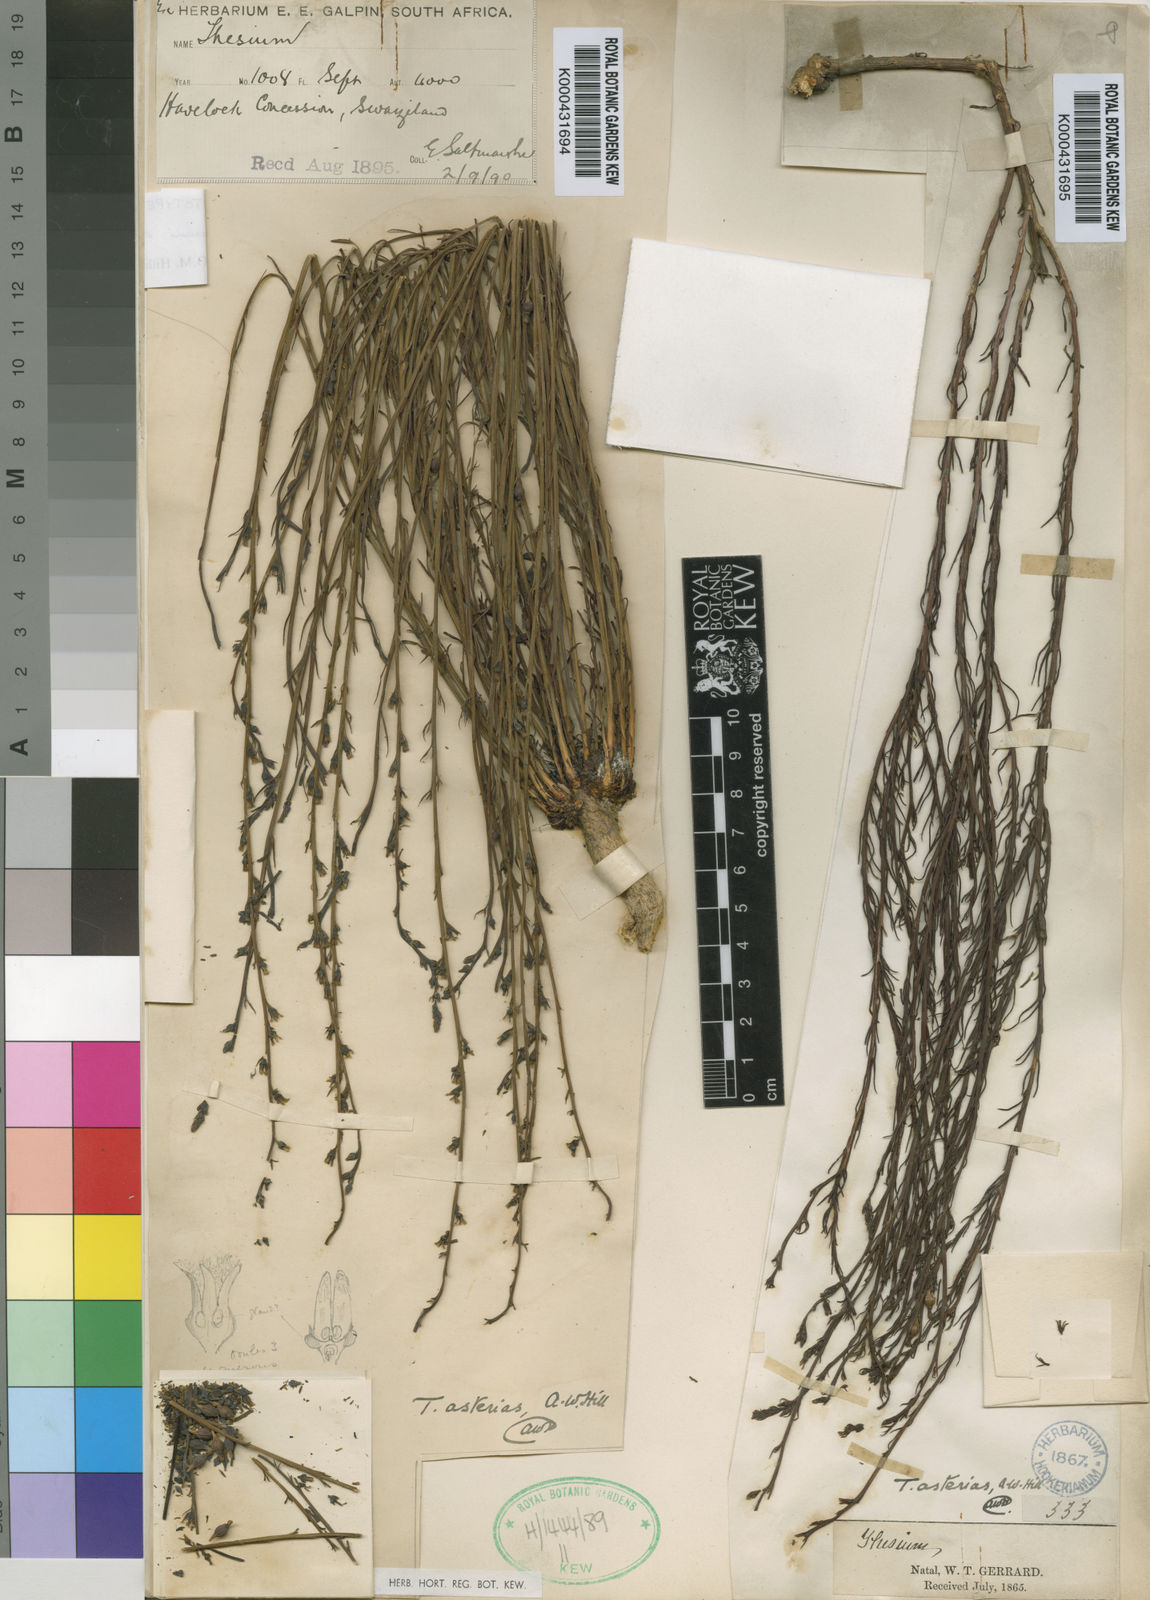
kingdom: Plantae
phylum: Tracheophyta
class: Magnoliopsida
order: Santalales
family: Thesiaceae
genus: Thesium
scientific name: Thesium asterias
